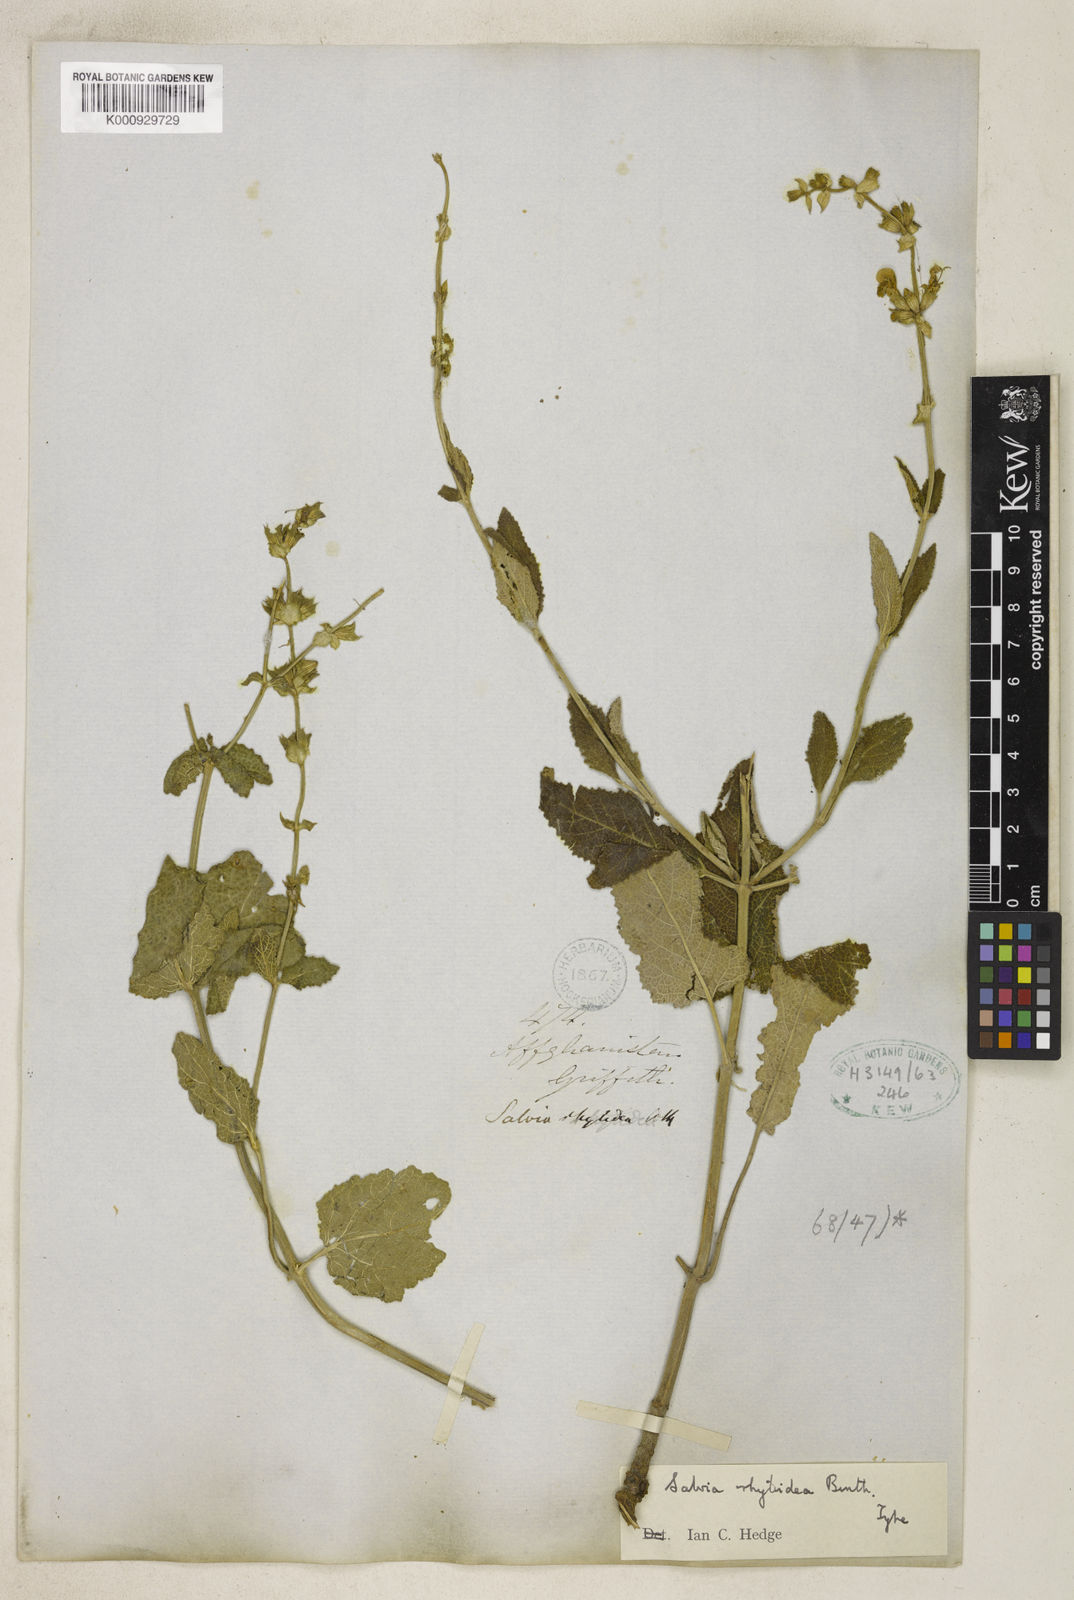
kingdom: Plantae
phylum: Tracheophyta
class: Magnoliopsida
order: Lamiales
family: Lamiaceae
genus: Salvia
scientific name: Salvia rhytidea
